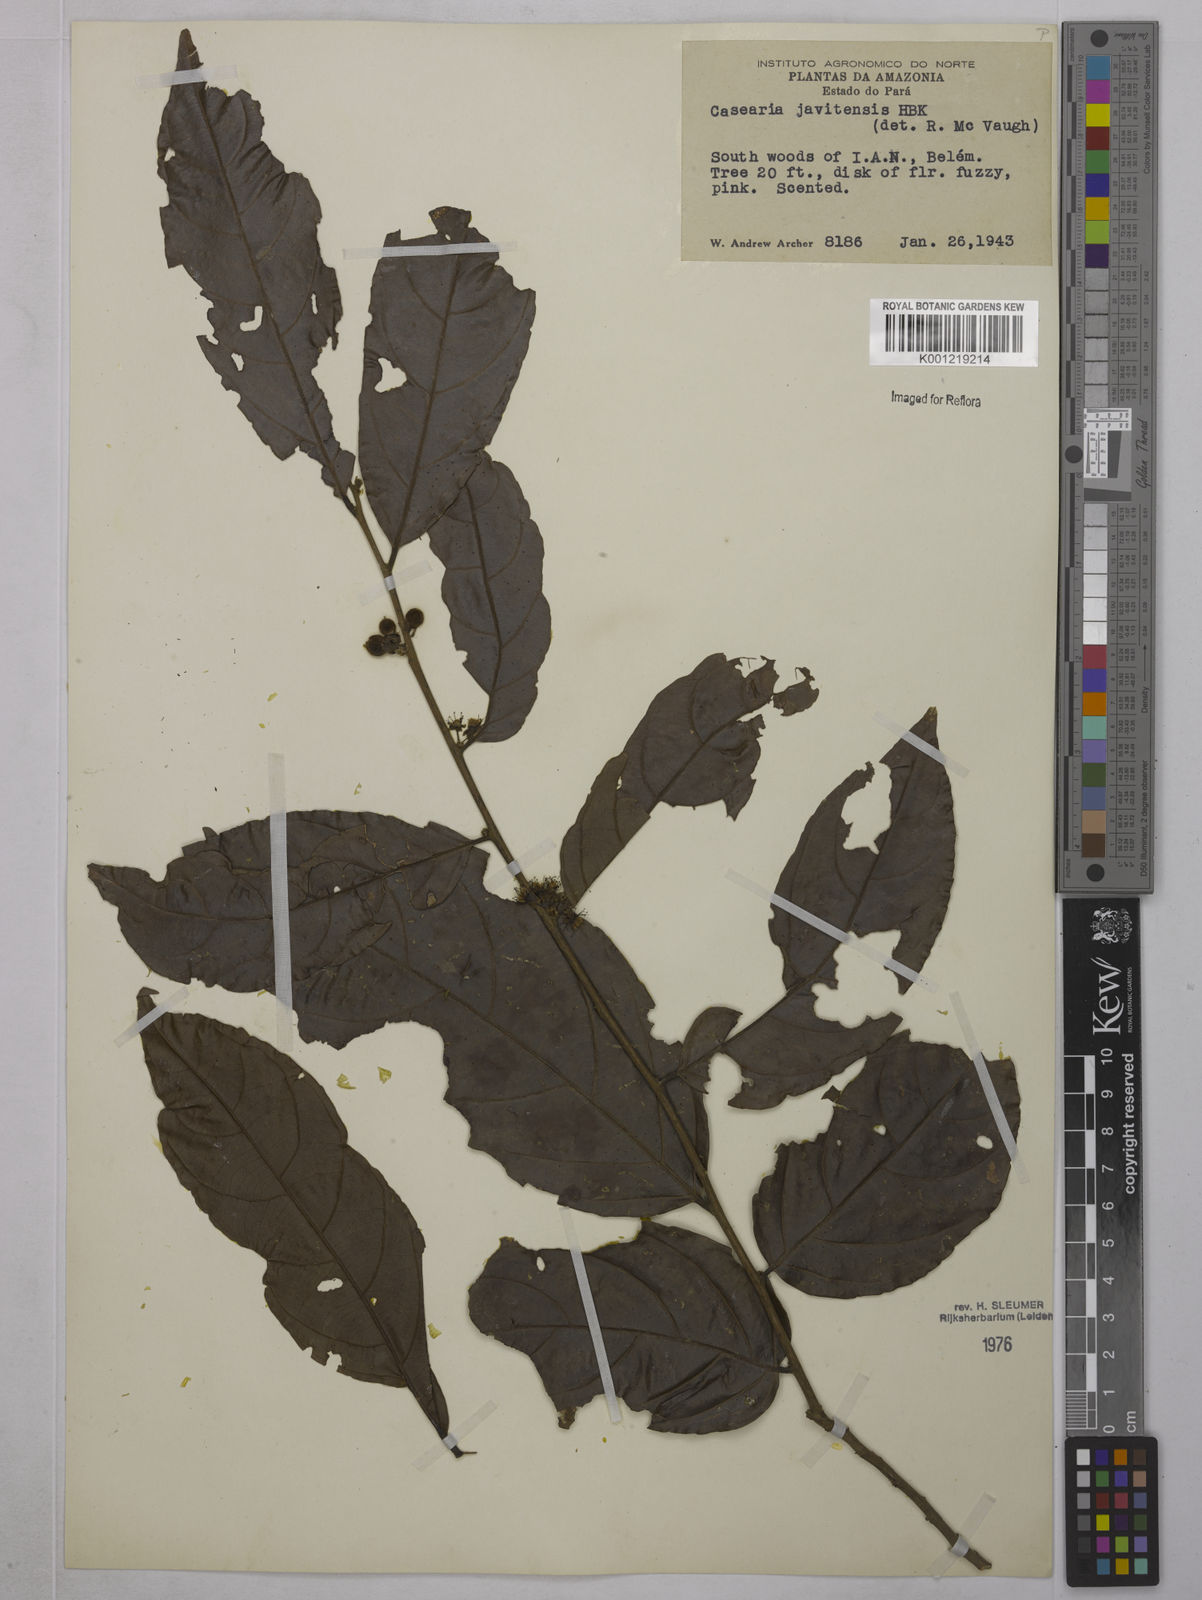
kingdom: Plantae
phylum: Tracheophyta
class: Magnoliopsida
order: Malpighiales
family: Salicaceae
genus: Piparea
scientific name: Piparea multiflora
